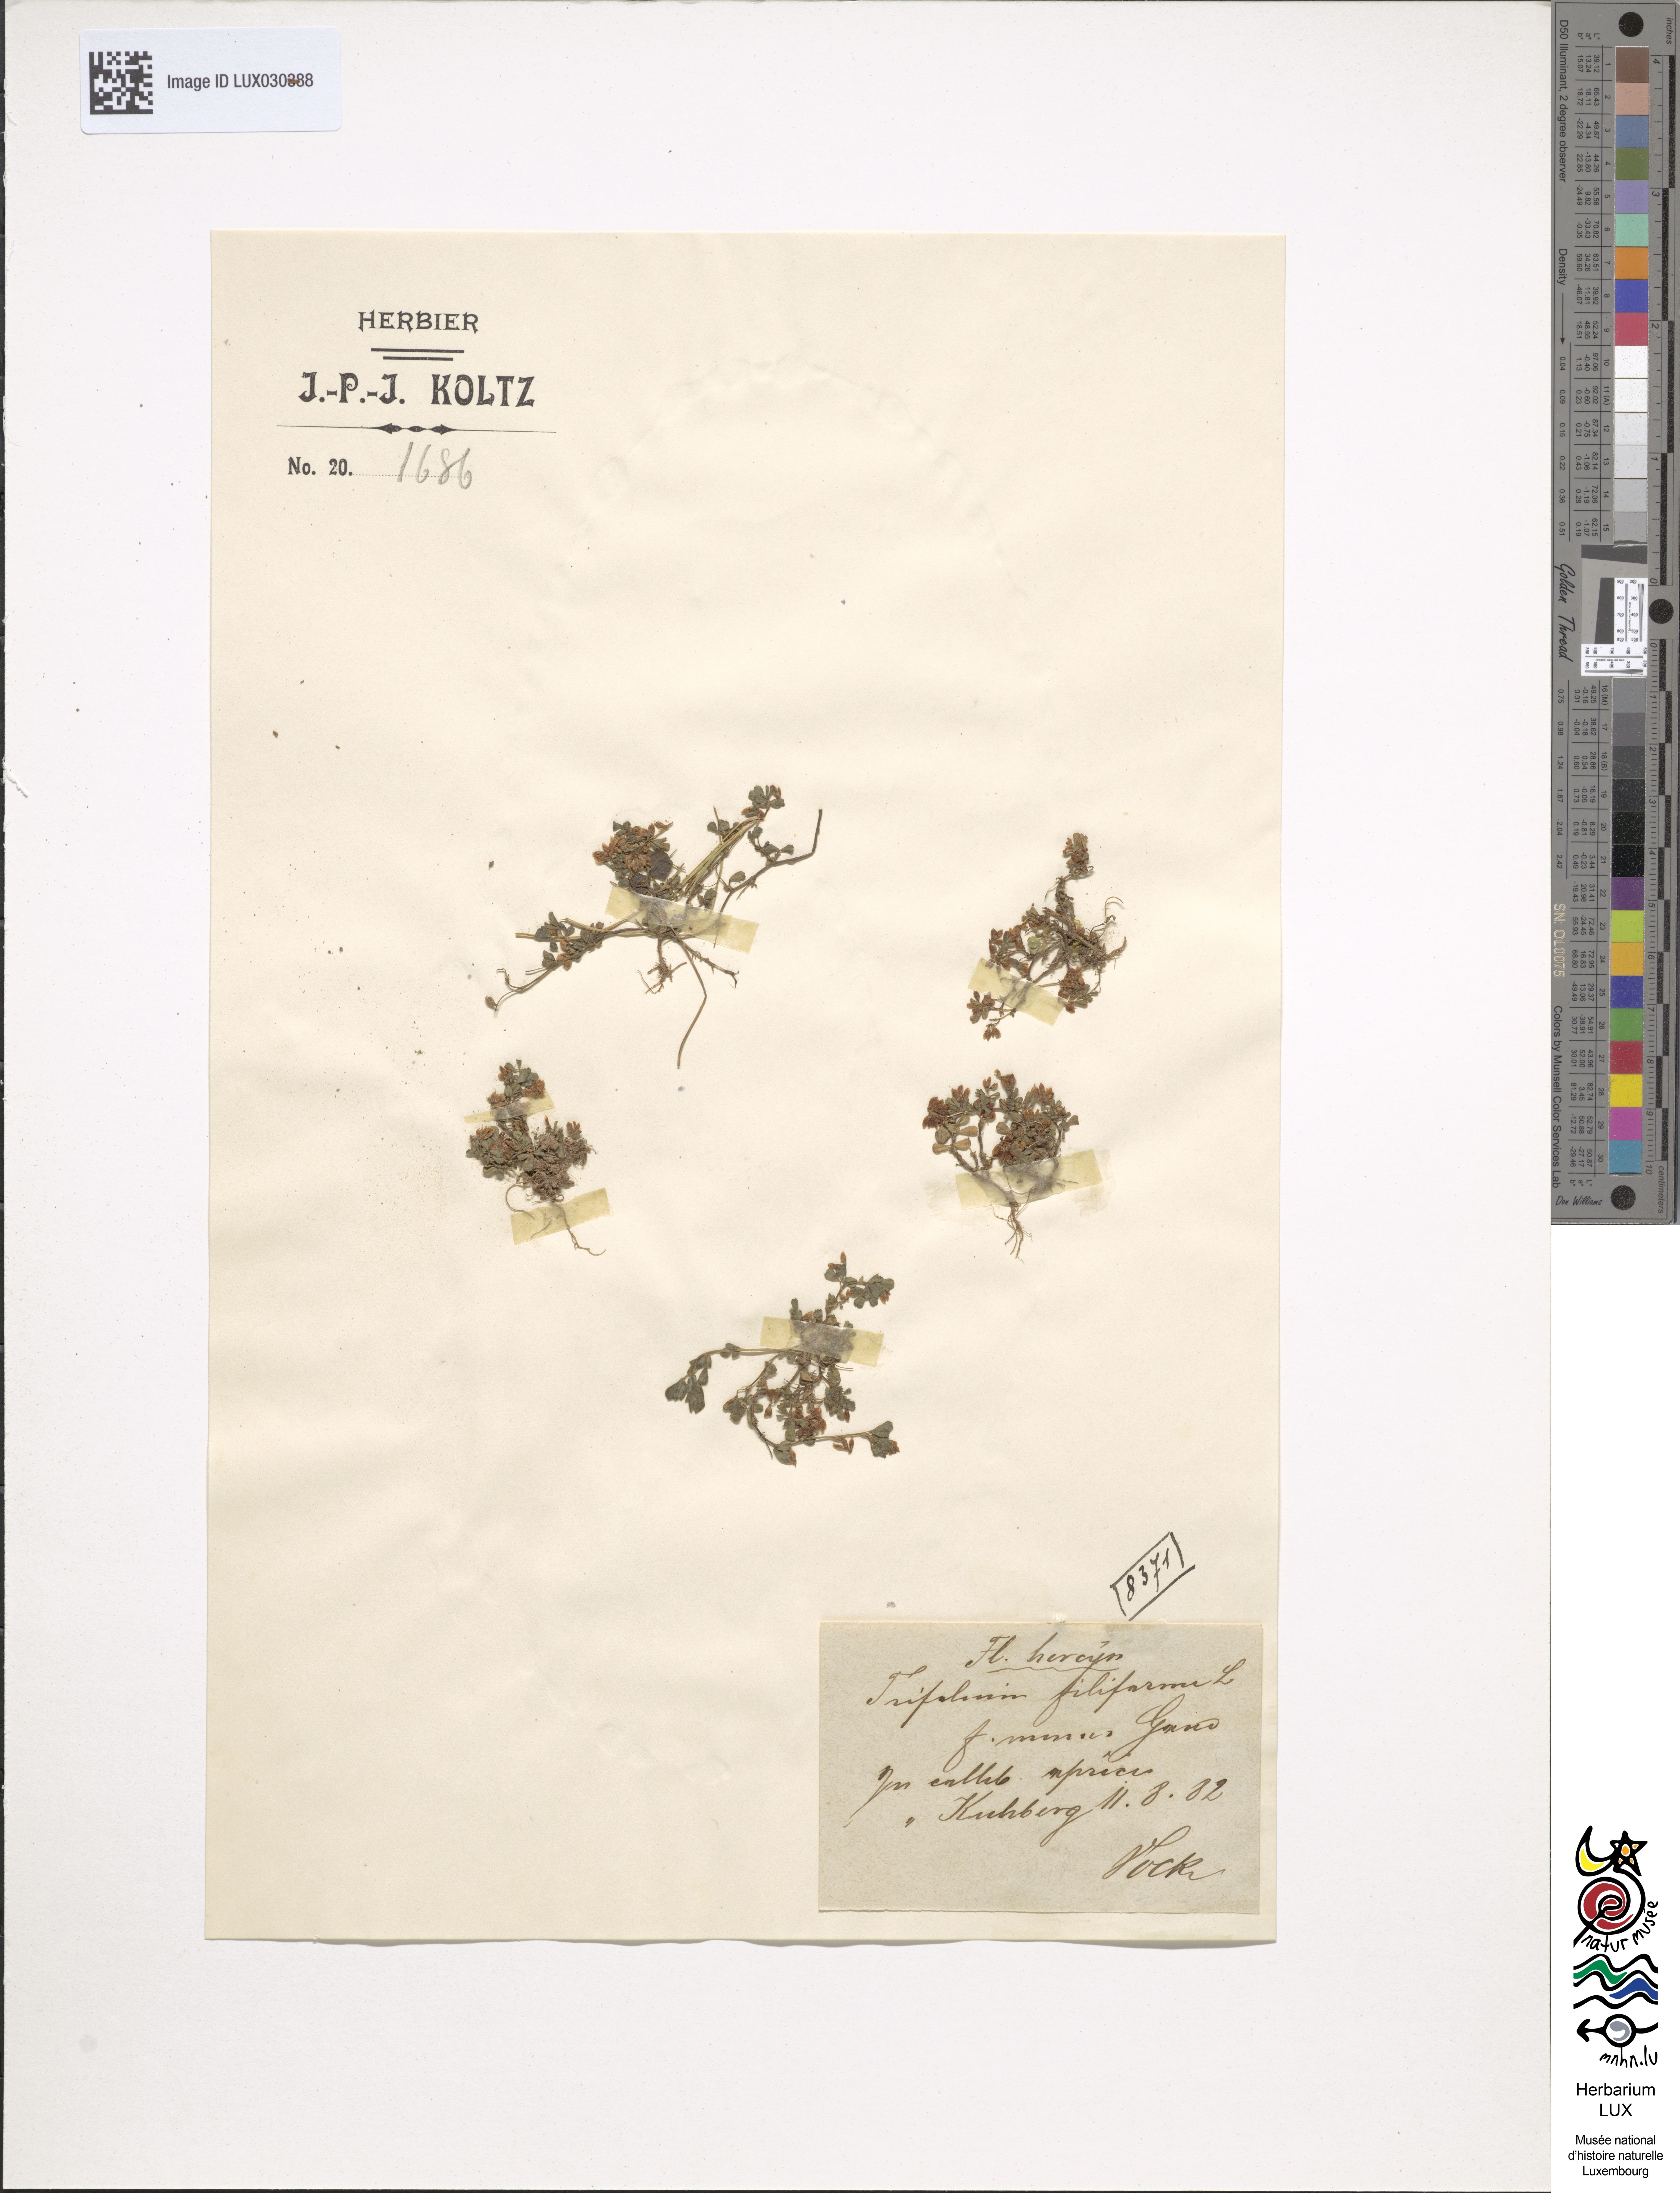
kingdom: Plantae
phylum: Tracheophyta
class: Magnoliopsida
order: Fabales
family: Fabaceae
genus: Trifolium
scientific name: Trifolium dubium
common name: Suckling clover
